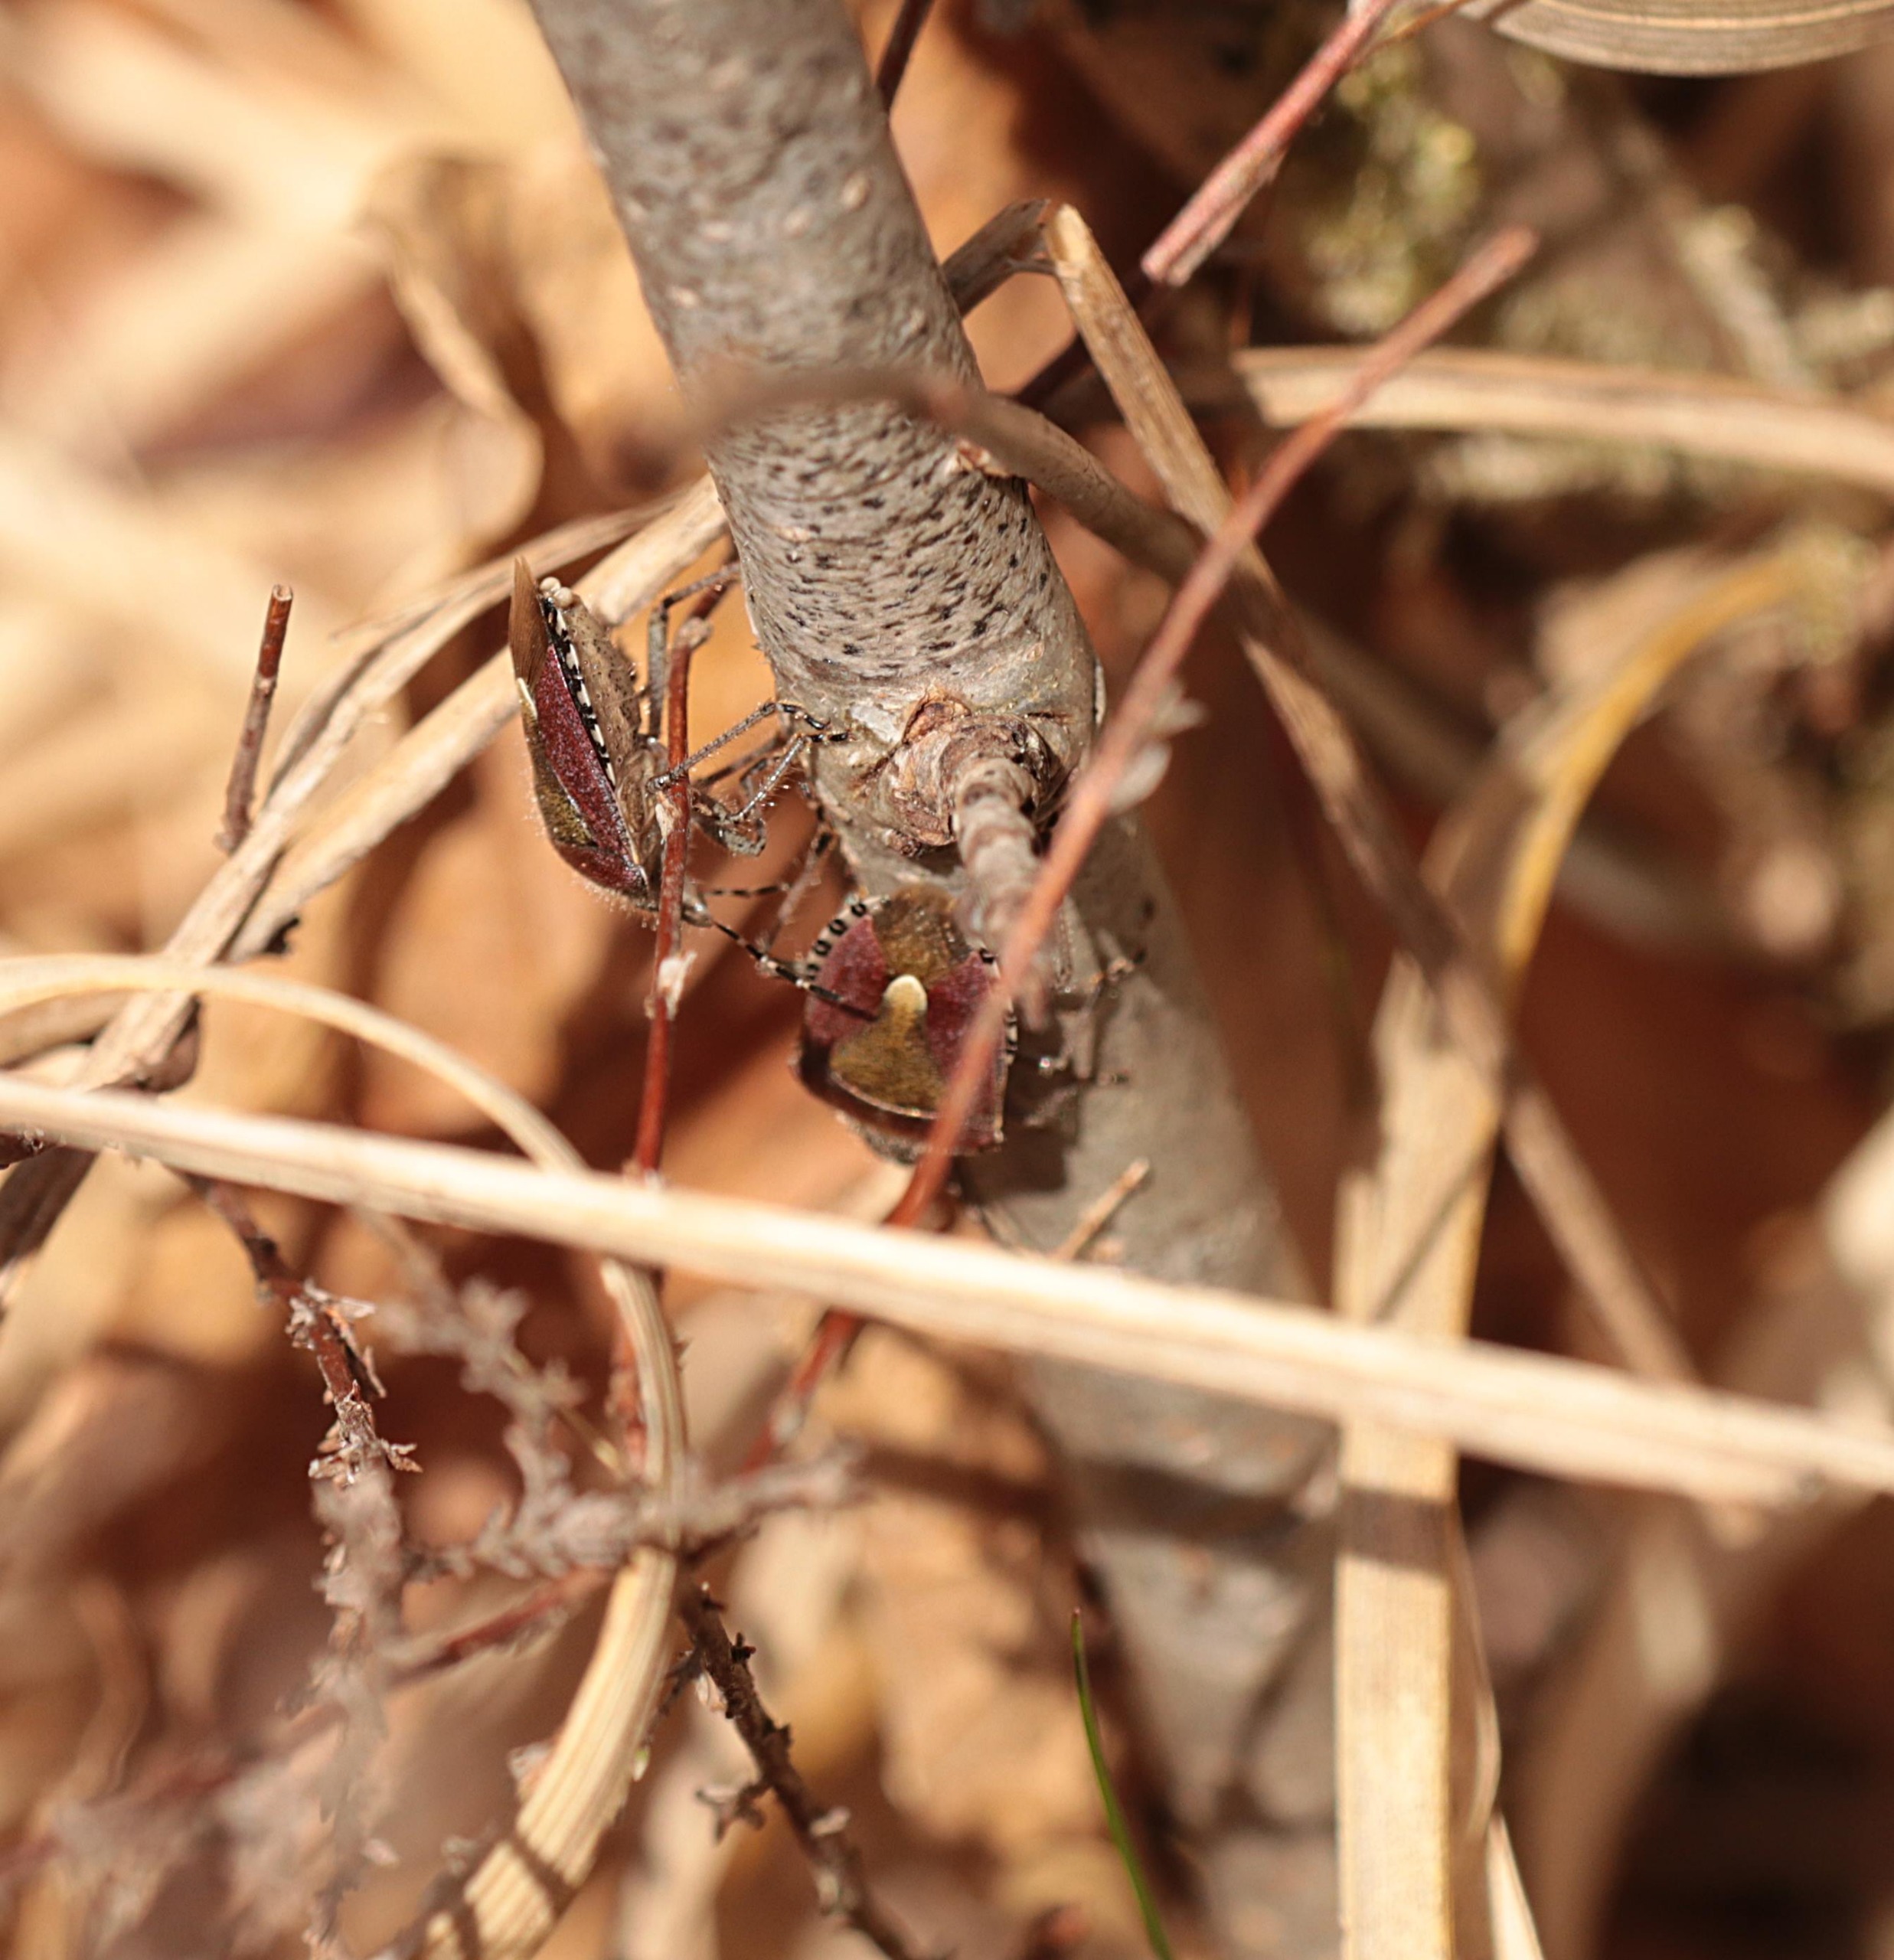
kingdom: Animalia
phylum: Arthropoda
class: Insecta
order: Hemiptera
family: Pentatomidae
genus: Dolycoris
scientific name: Dolycoris baccarum
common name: Almindelig bærtæge
